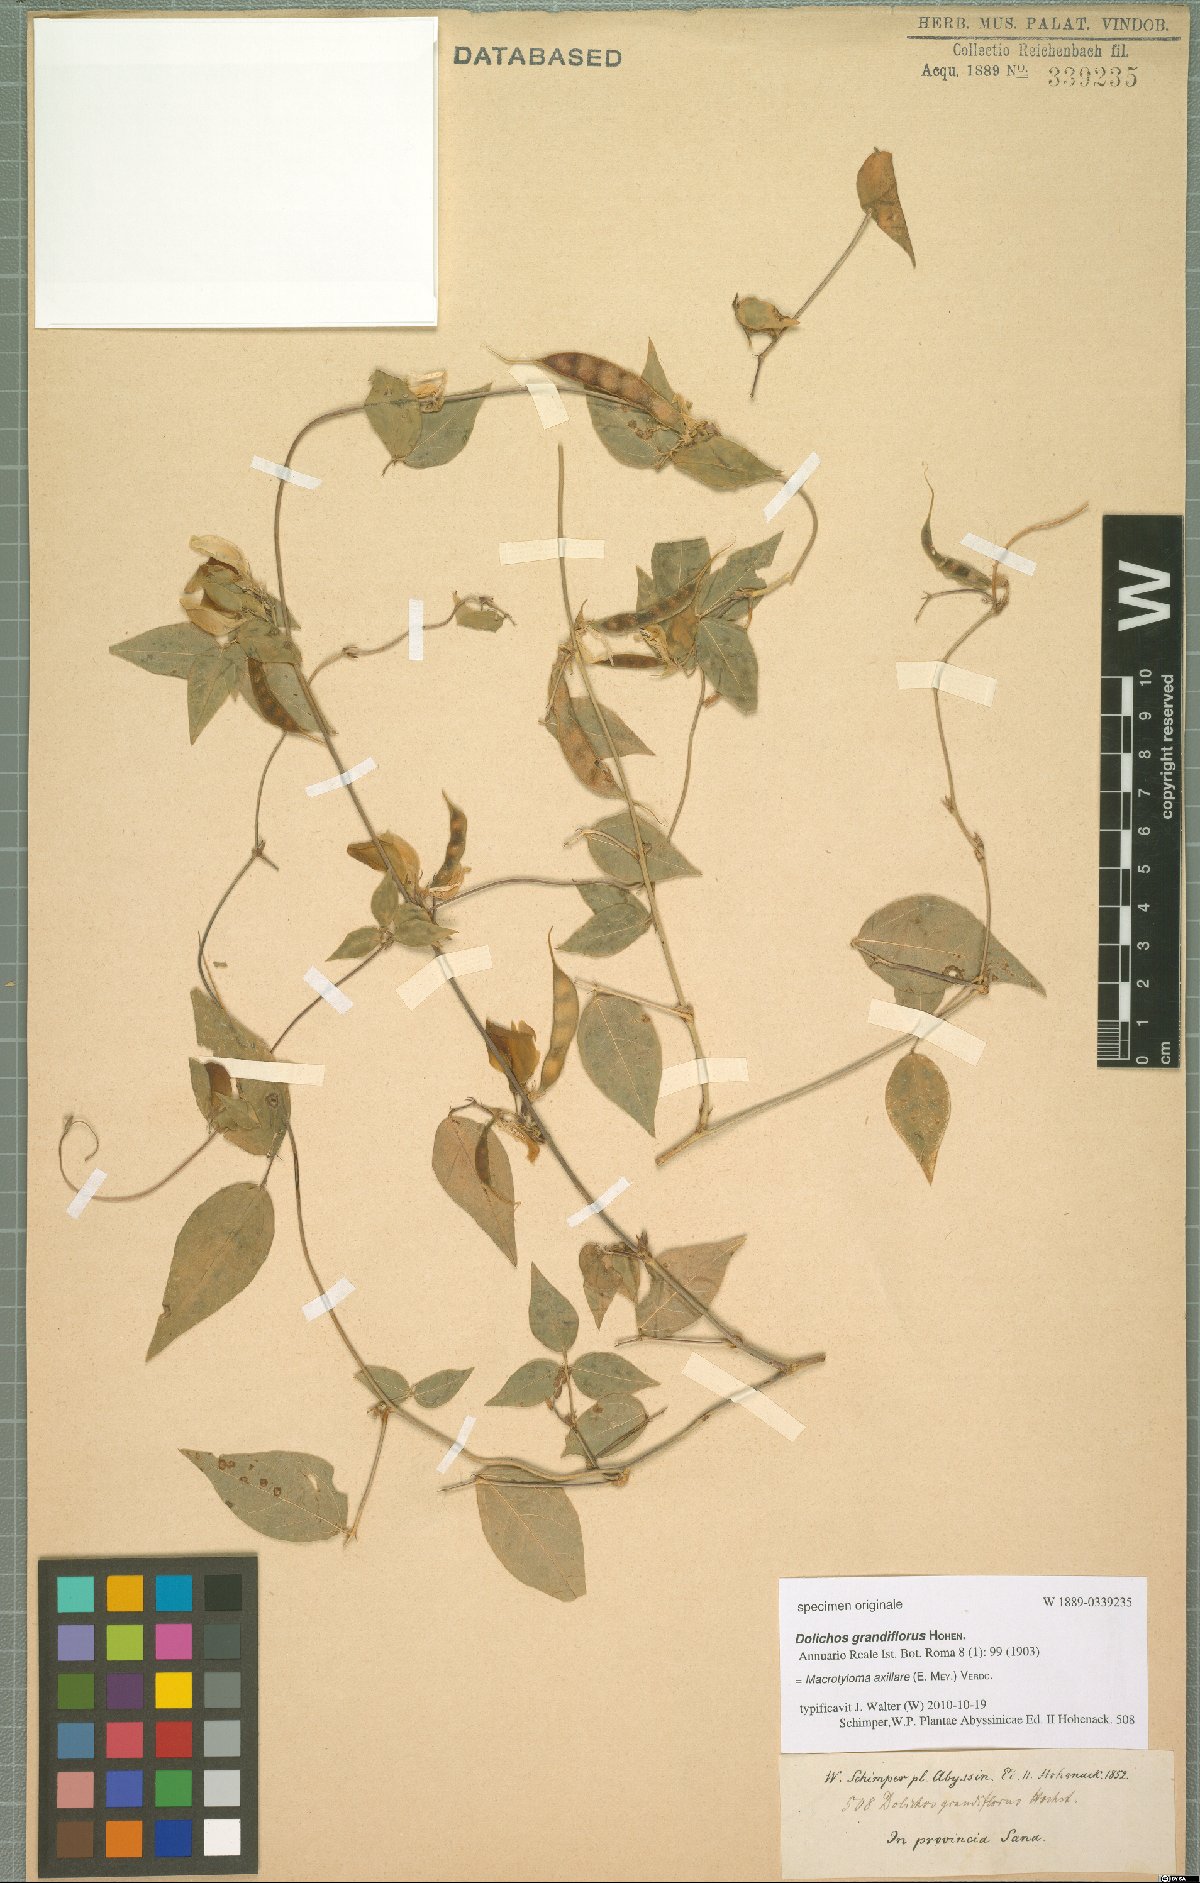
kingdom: Plantae
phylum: Tracheophyta
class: Magnoliopsida
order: Fabales
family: Fabaceae
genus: Macrotyloma
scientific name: Macrotyloma axillare
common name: Perennial horsegram
